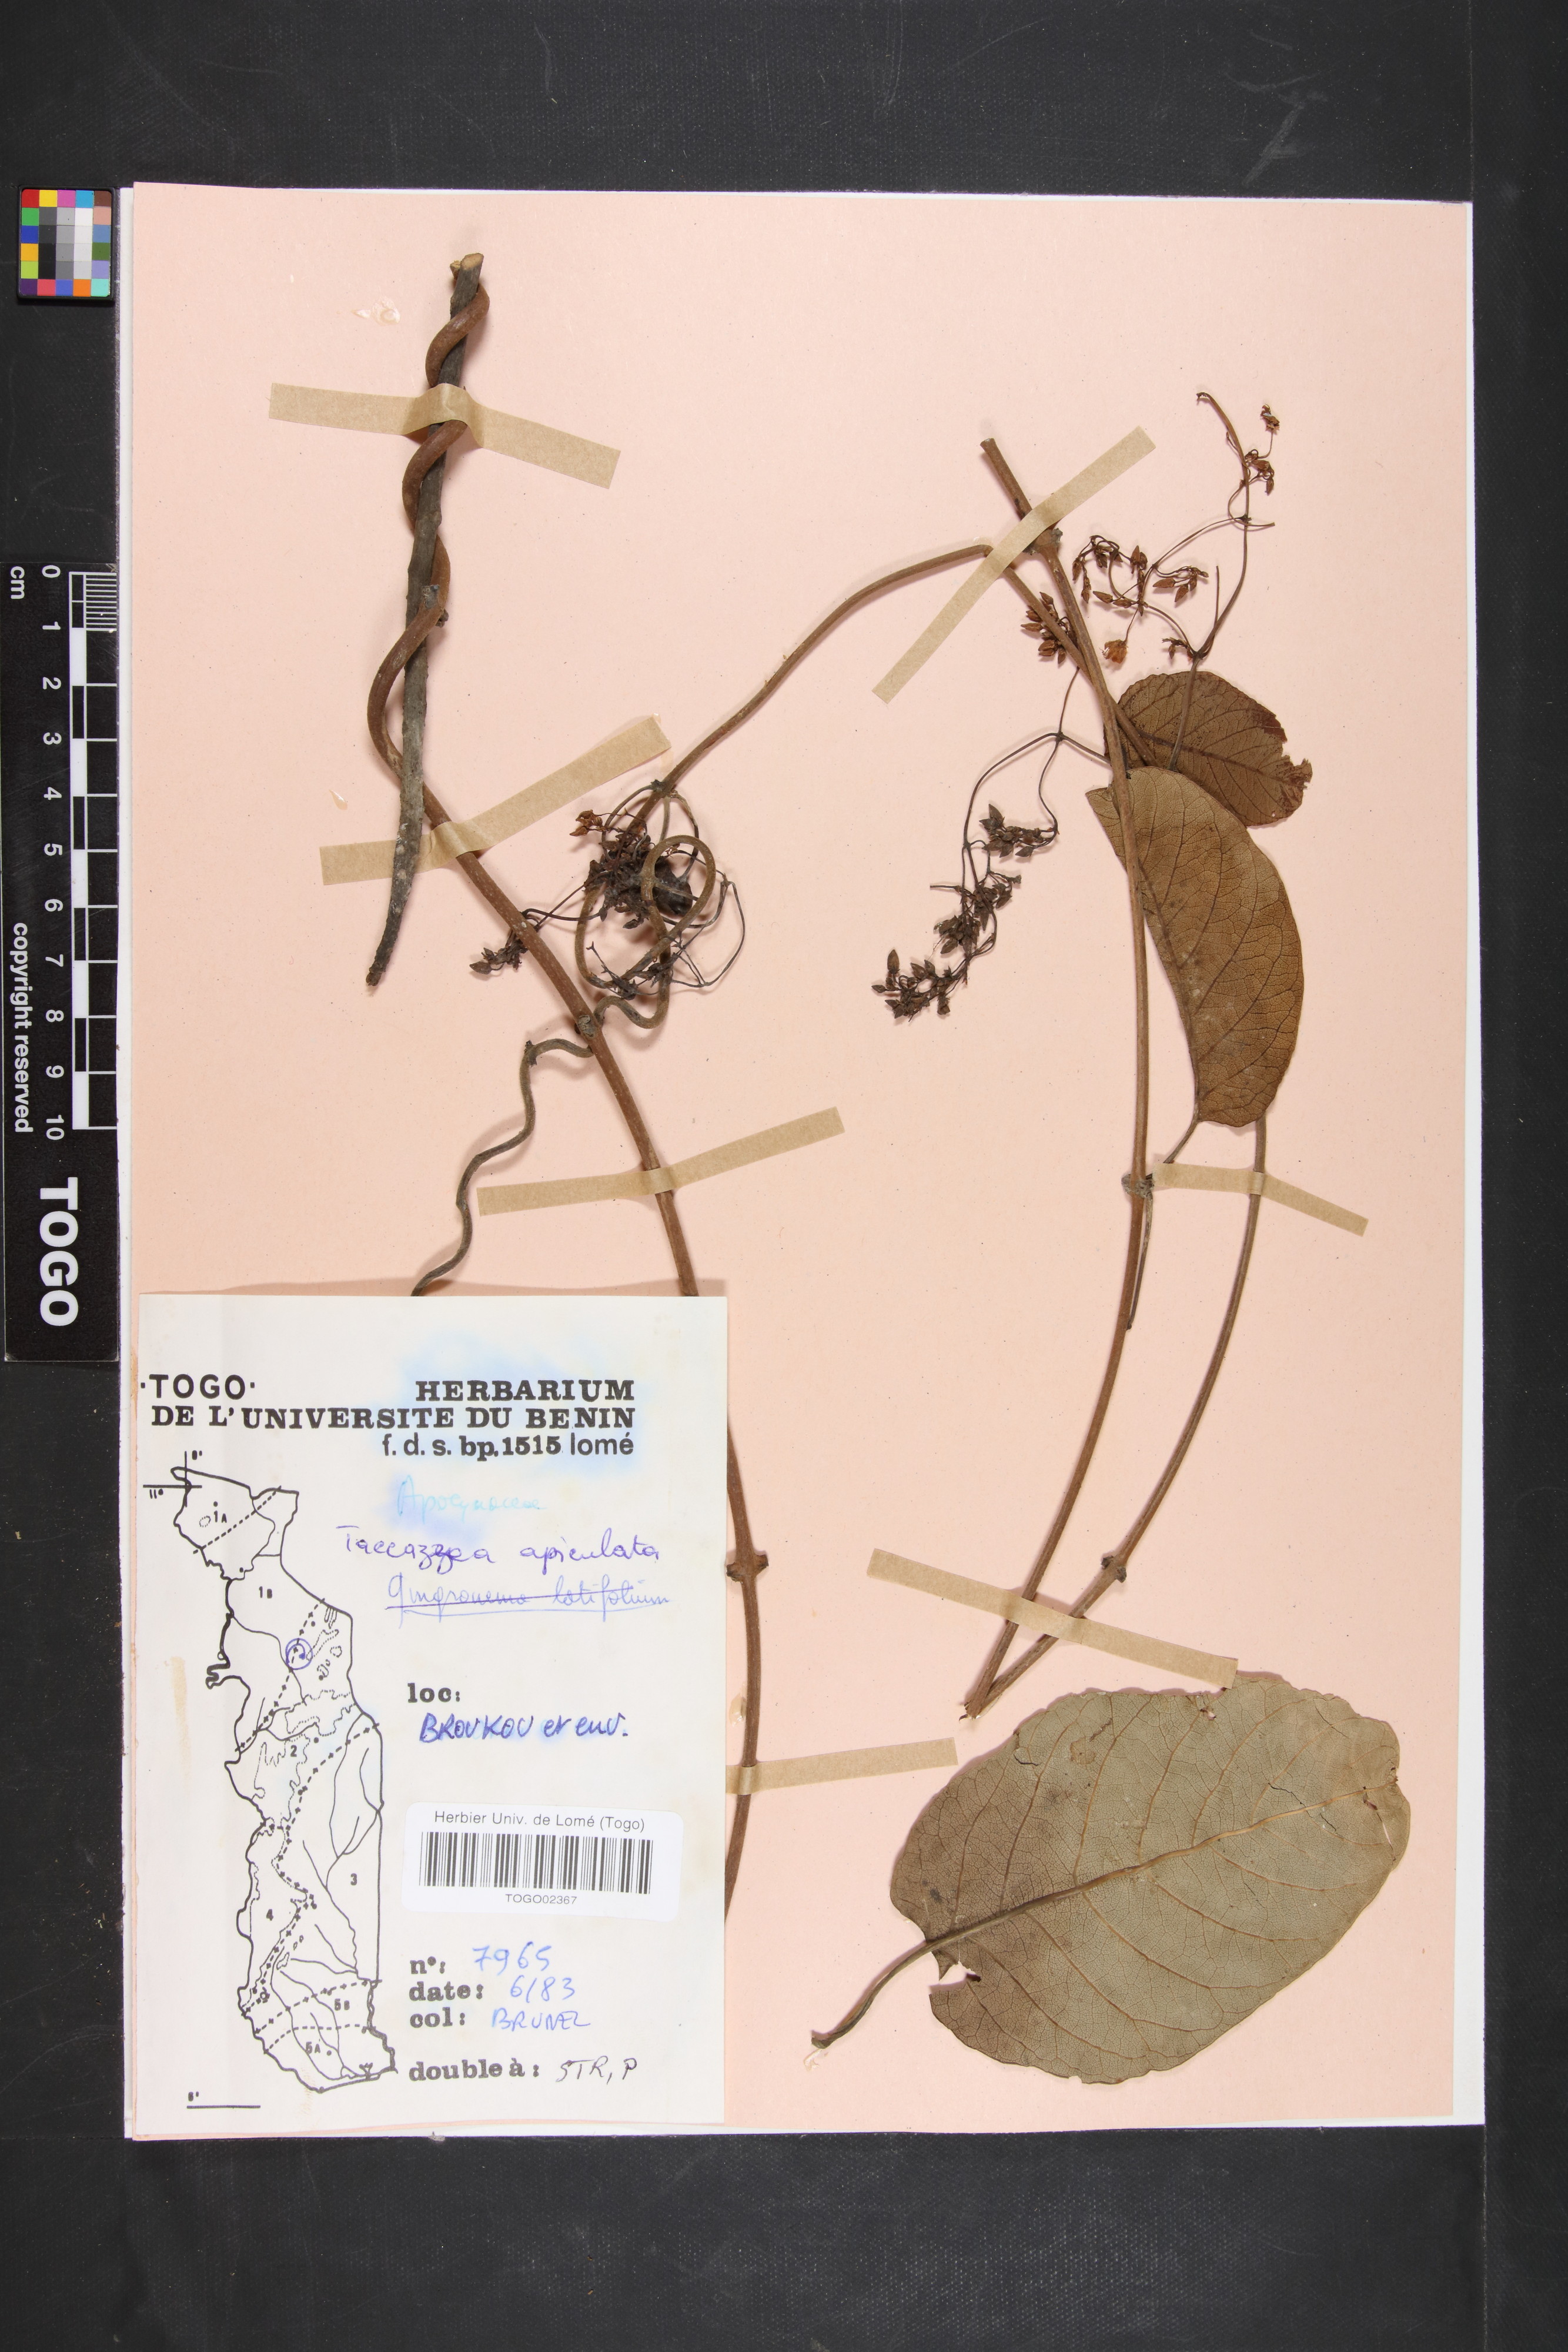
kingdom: Plantae
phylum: Tracheophyta
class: Magnoliopsida
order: Gentianales
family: Apocynaceae
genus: Tacazzea
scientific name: Tacazzea apiculata
